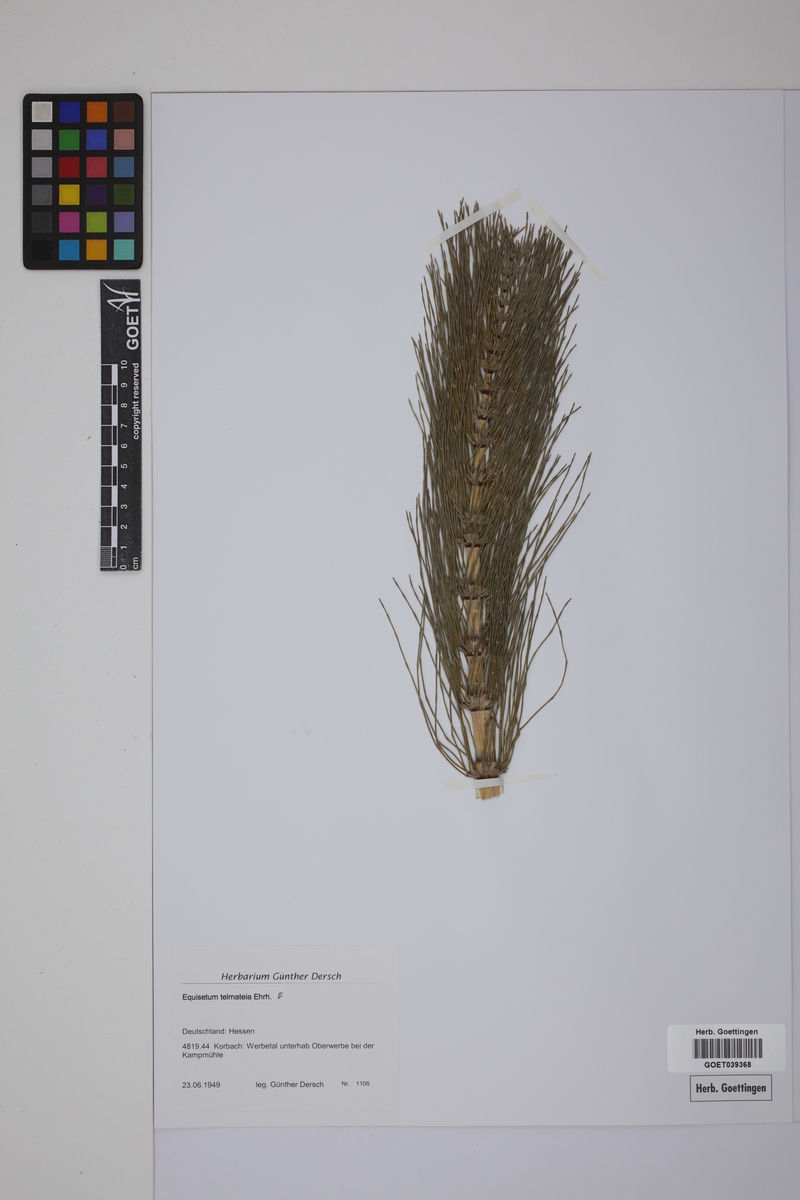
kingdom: Plantae
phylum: Tracheophyta
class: Polypodiopsida
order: Equisetales
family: Equisetaceae
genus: Equisetum
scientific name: Equisetum telmateia
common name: Great horsetail
